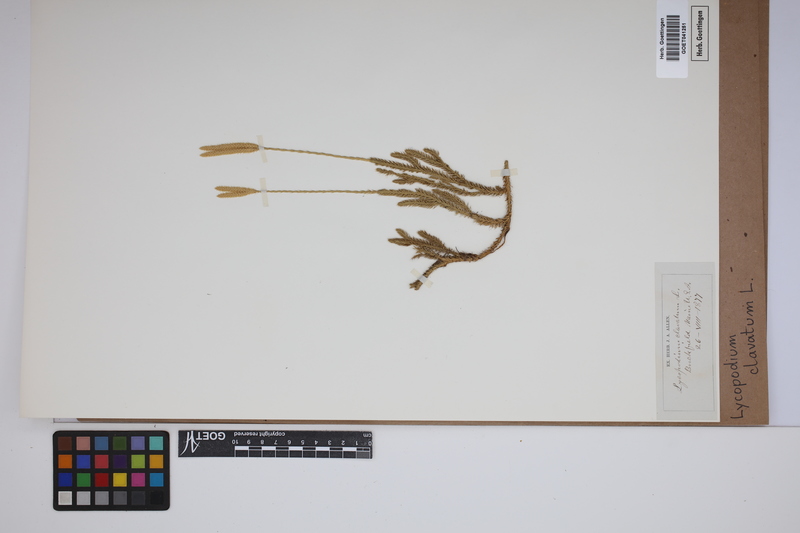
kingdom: Plantae
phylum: Tracheophyta
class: Lycopodiopsida
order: Lycopodiales
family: Lycopodiaceae
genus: Lycopodium
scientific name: Lycopodium clavatum
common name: Stag's-horn clubmoss
